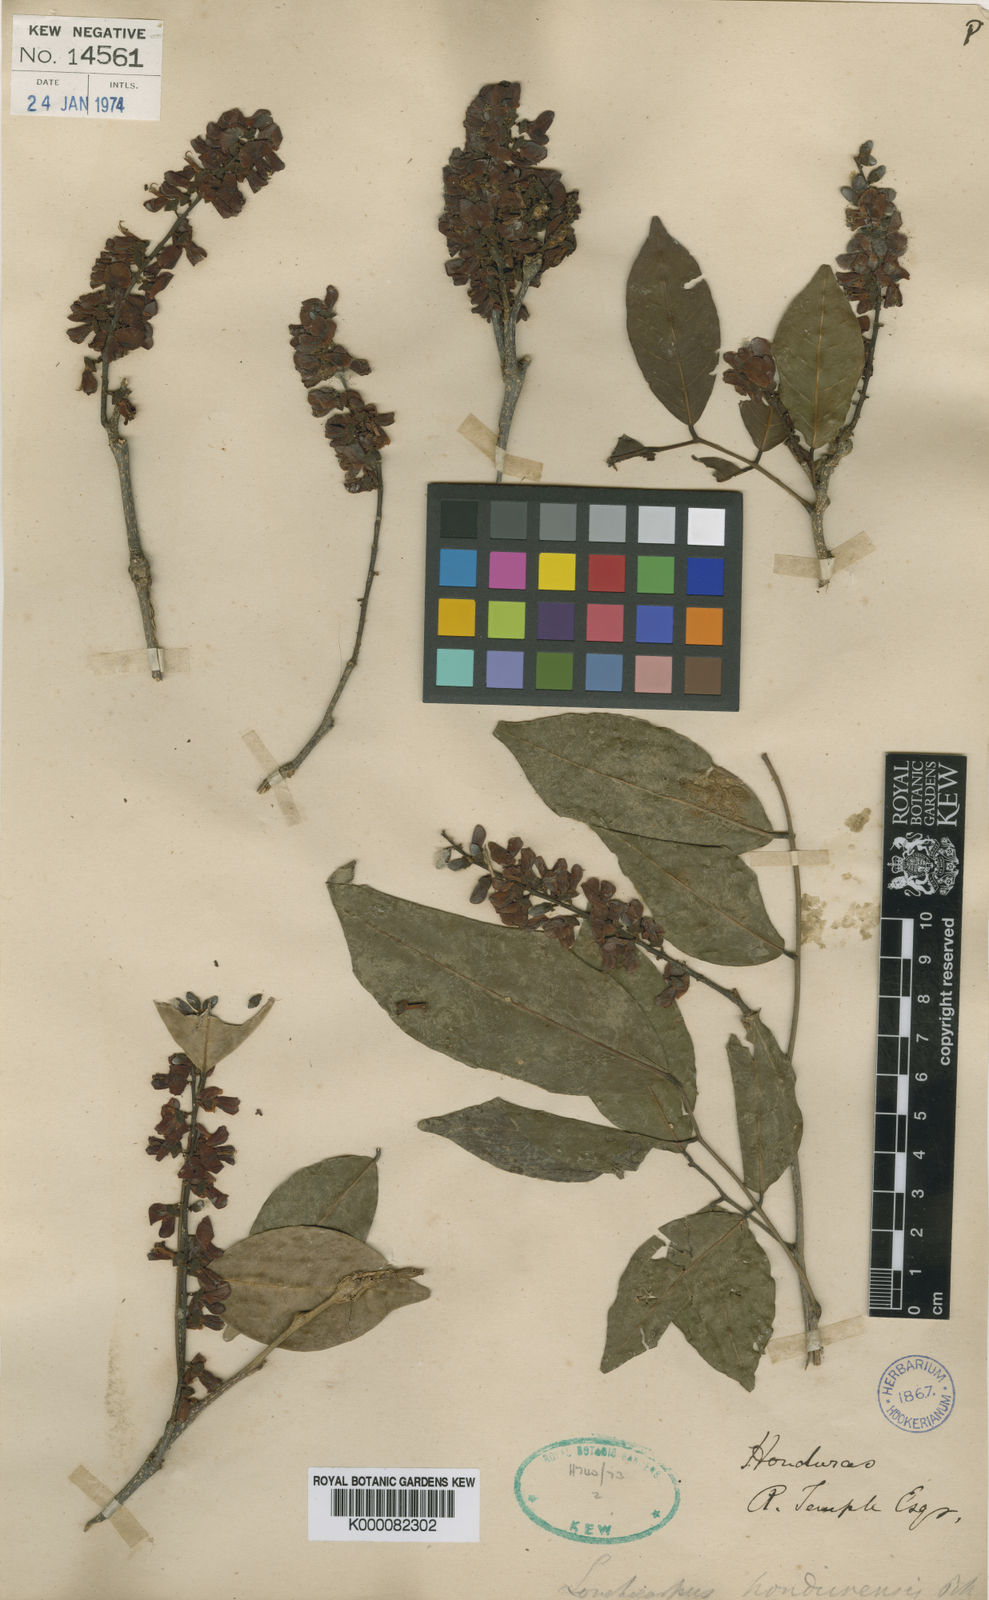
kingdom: Plantae
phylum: Tracheophyta
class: Magnoliopsida
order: Fabales
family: Fabaceae
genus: Lonchocarpus
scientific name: Lonchocarpus hondurensis
